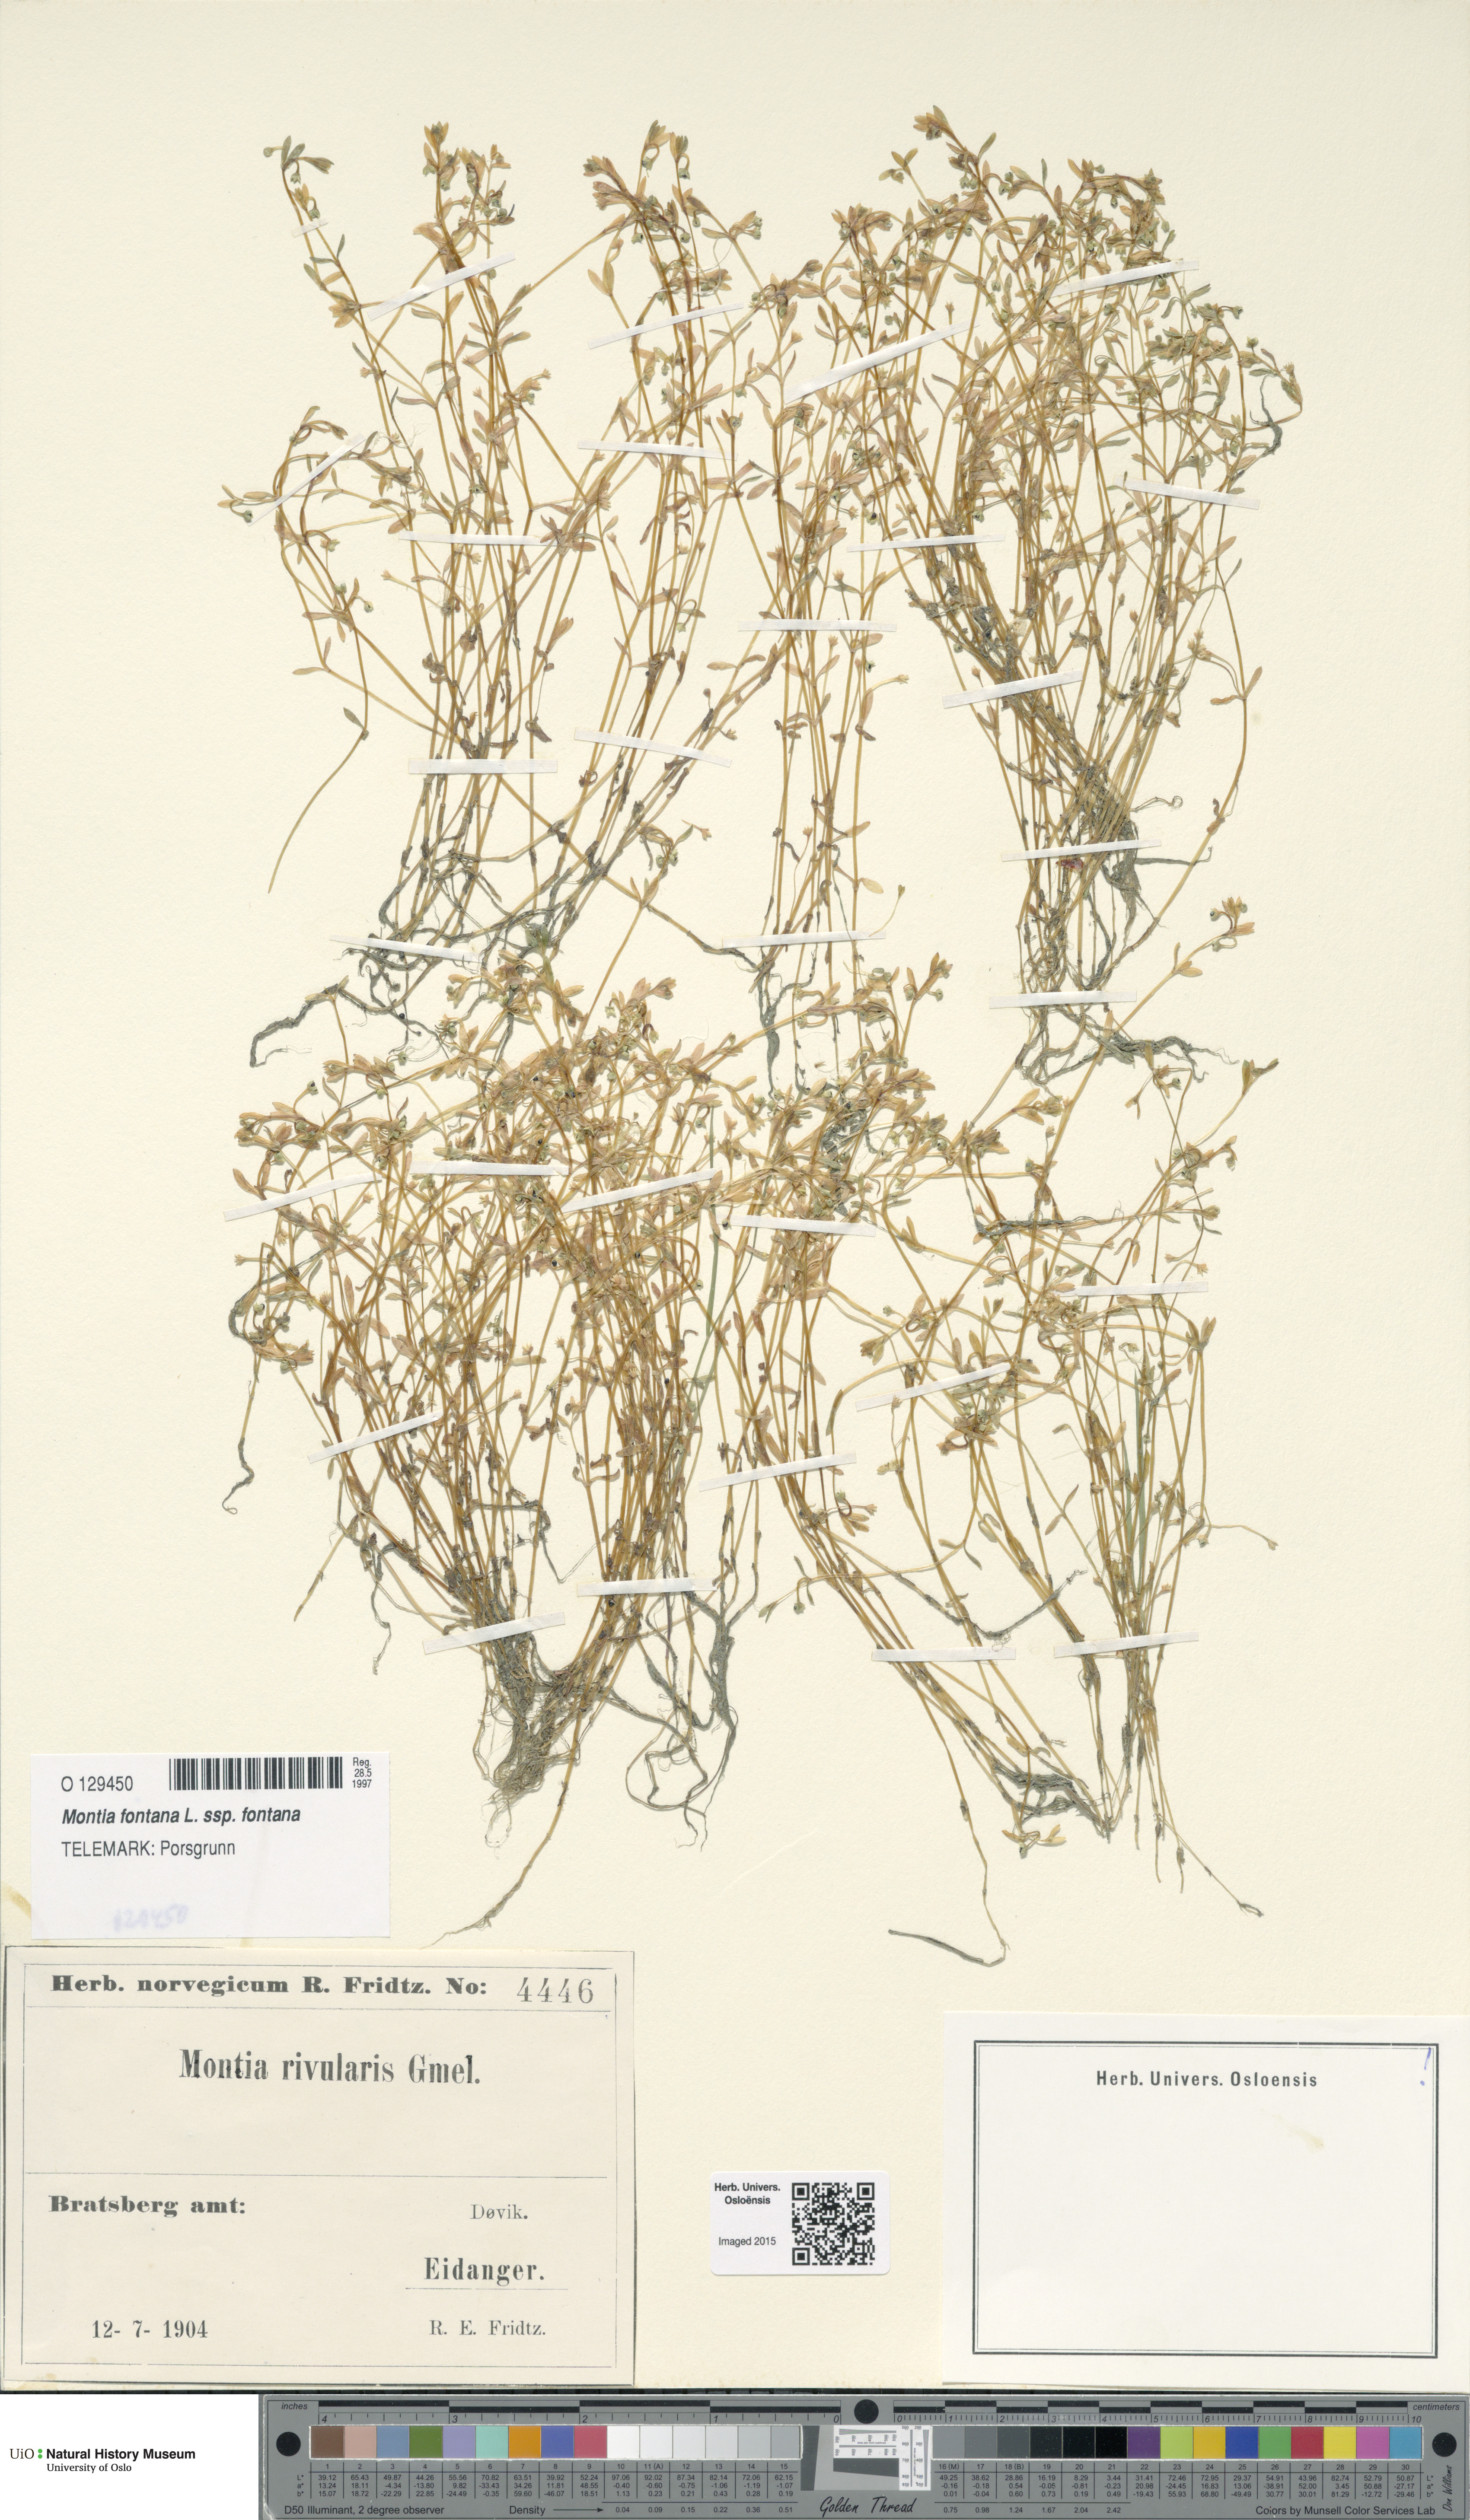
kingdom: Plantae
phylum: Tracheophyta
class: Magnoliopsida
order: Caryophyllales
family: Montiaceae
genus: Montia
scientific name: Montia fontana
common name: Blinks
